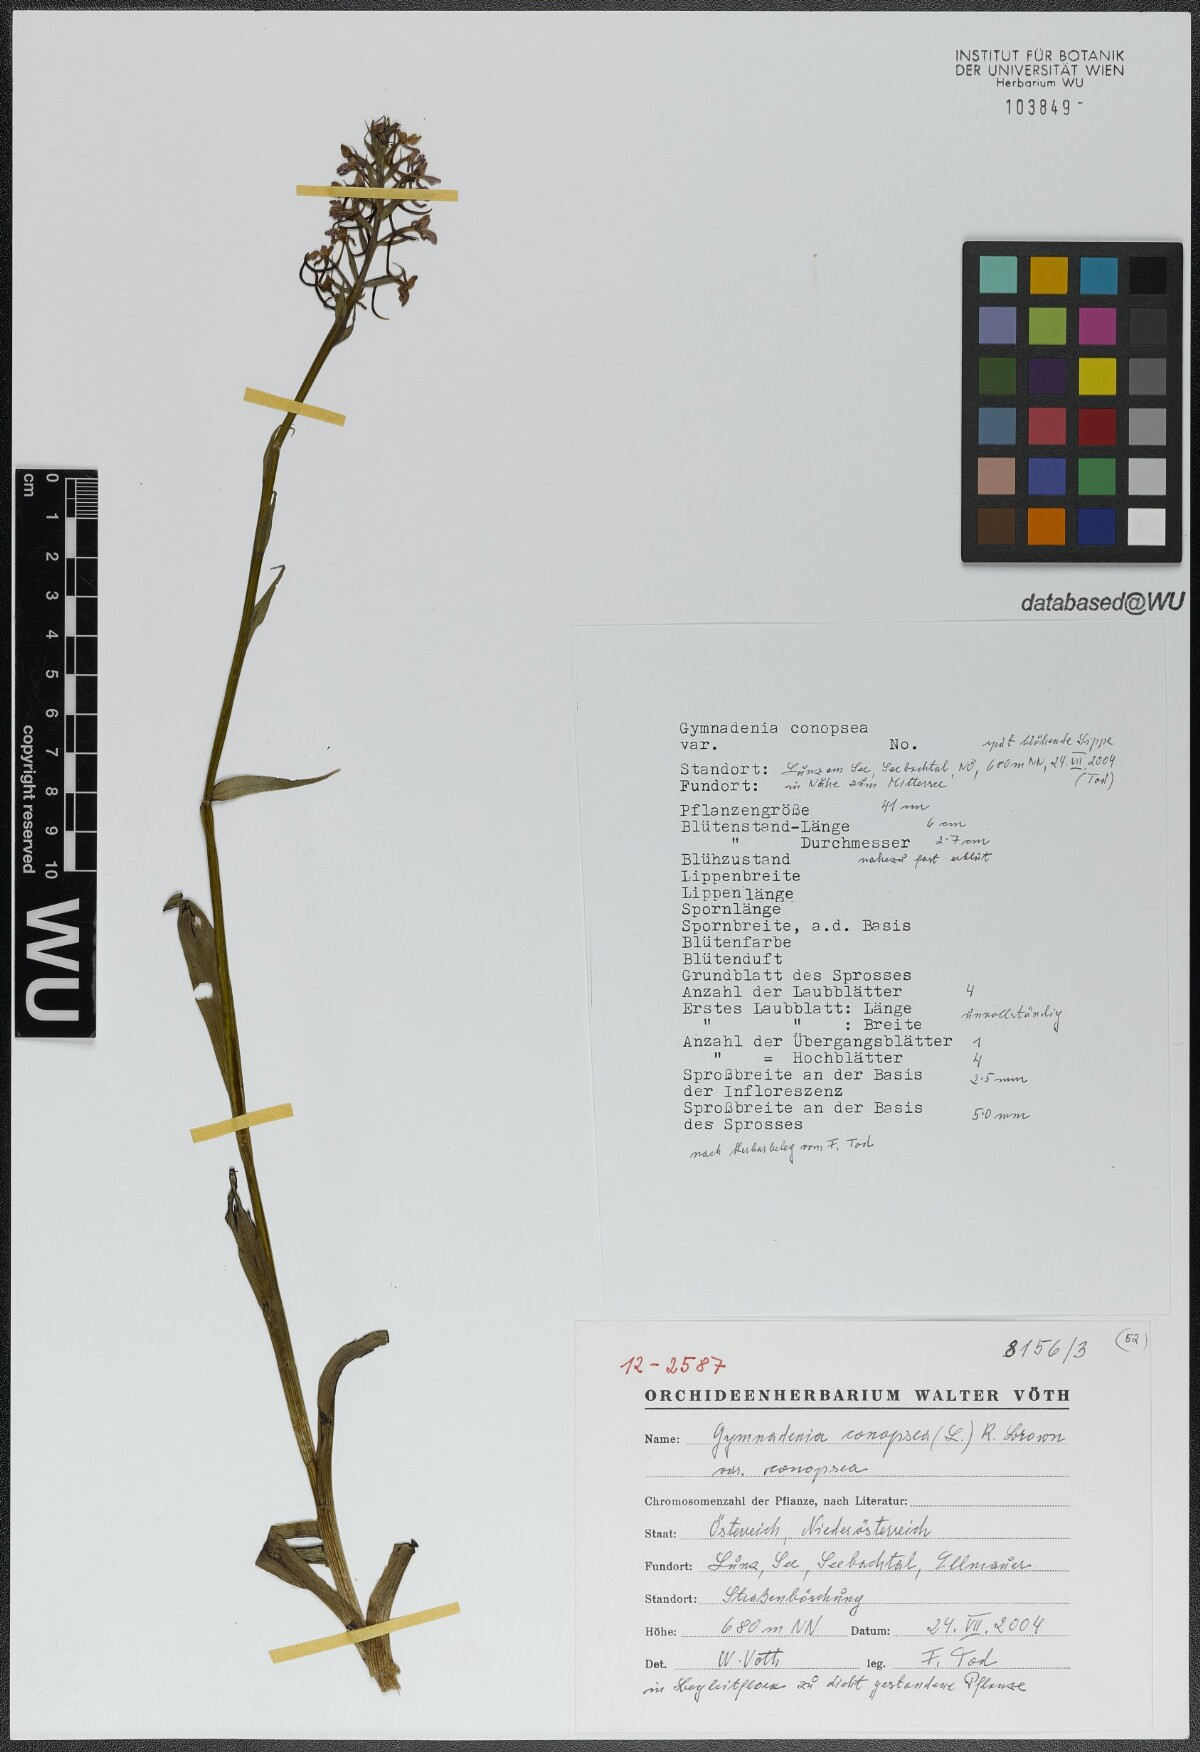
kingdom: Plantae
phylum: Tracheophyta
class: Liliopsida
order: Asparagales
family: Orchidaceae
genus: Gymnadenia
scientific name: Gymnadenia conopsea
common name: Fragrant orchid
